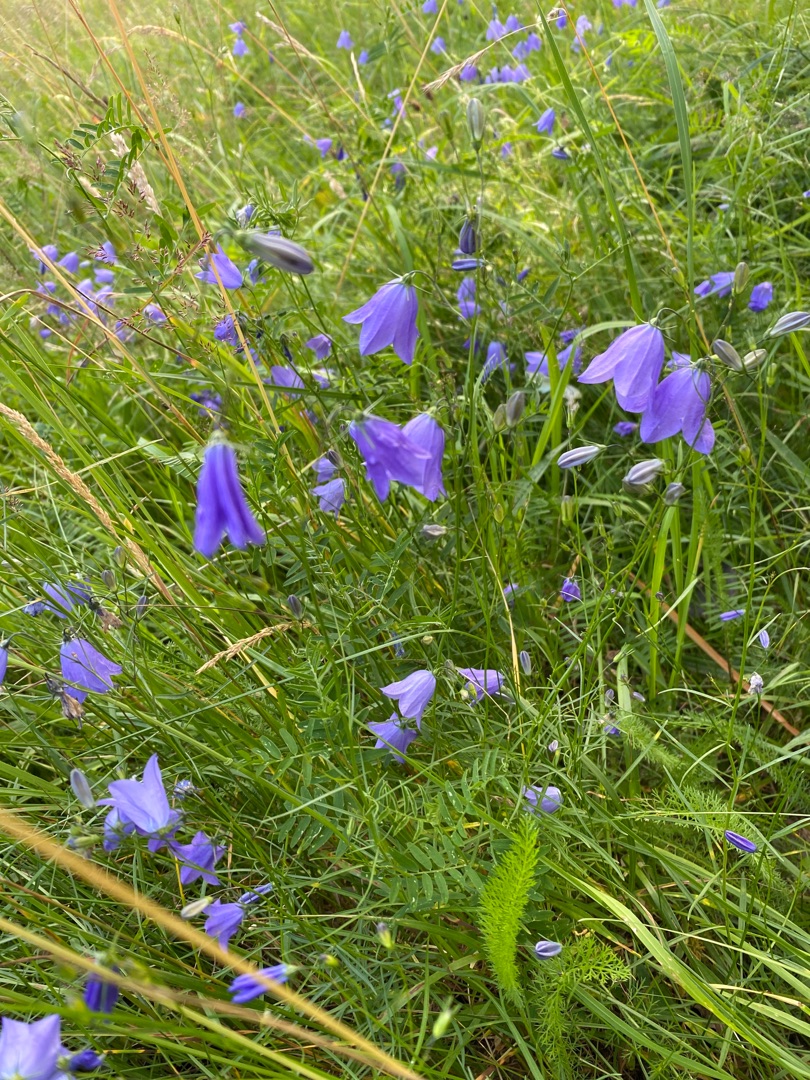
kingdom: Plantae
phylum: Tracheophyta
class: Magnoliopsida
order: Asterales
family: Campanulaceae
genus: Campanula
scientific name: Campanula rotundifolia
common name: Liden klokke
